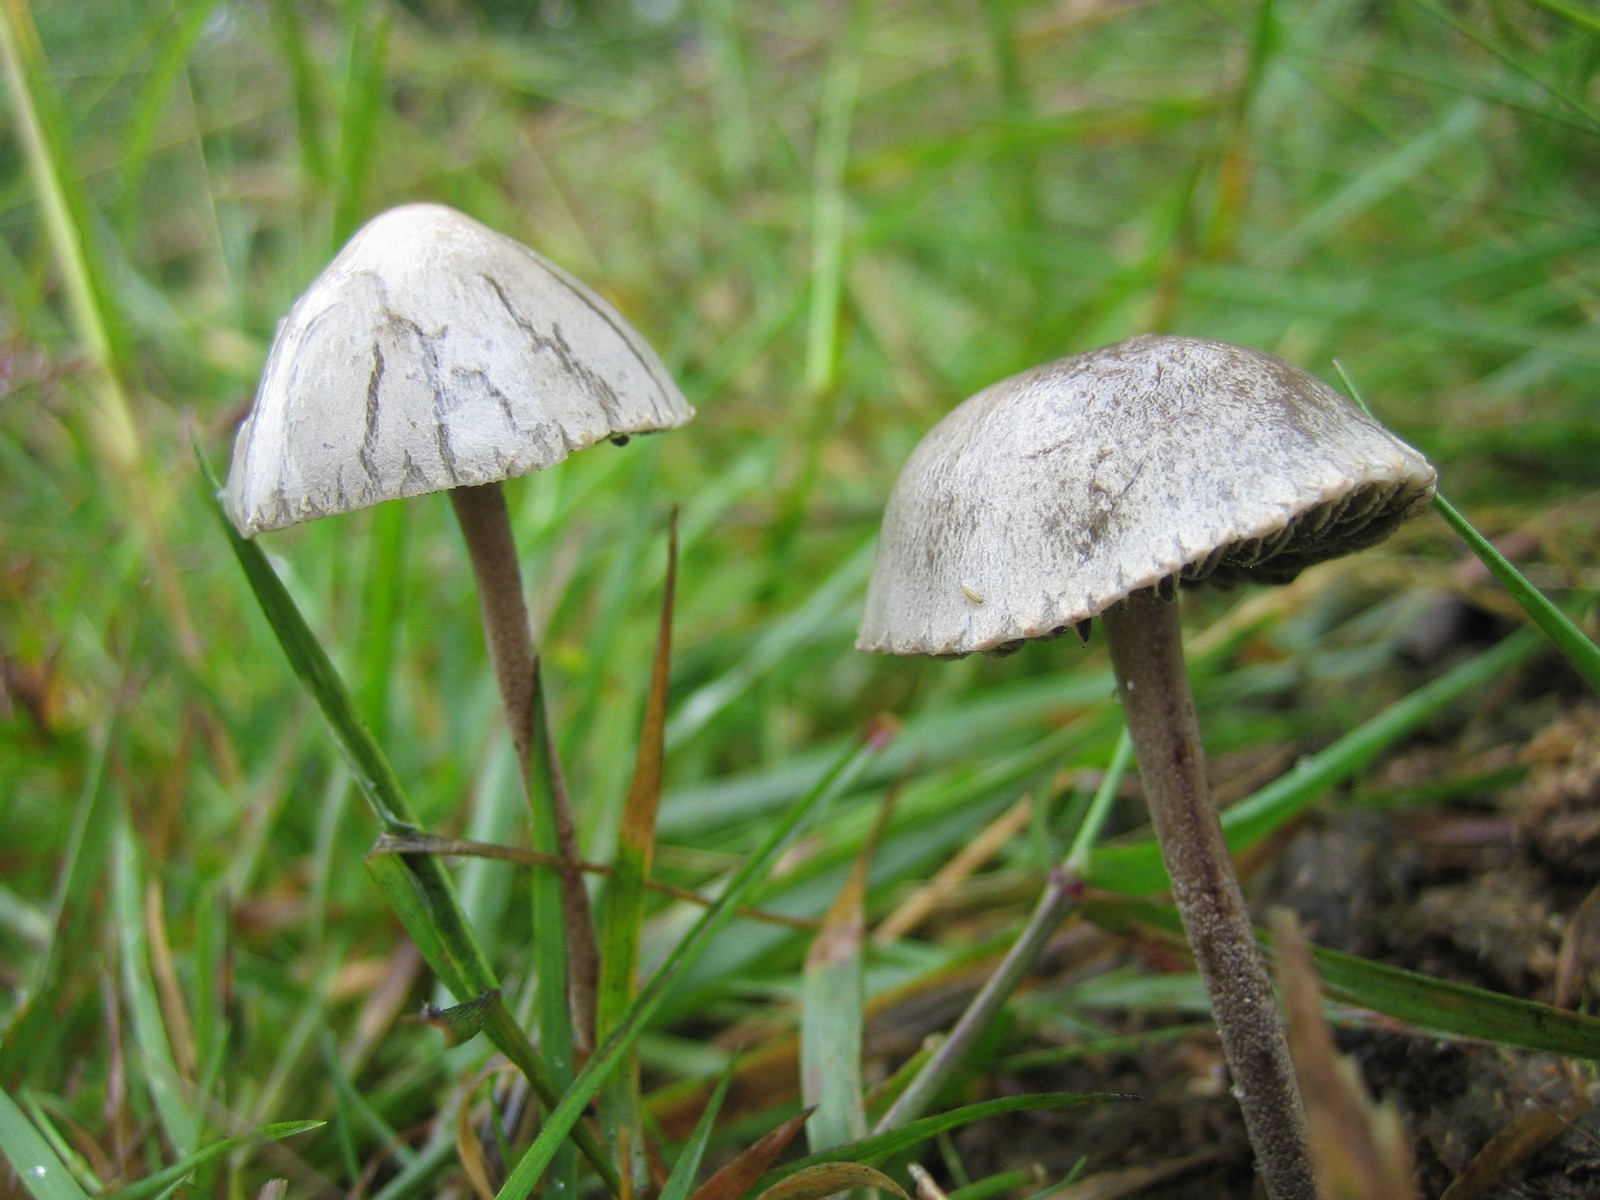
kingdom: Fungi
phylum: Basidiomycota
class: Agaricomycetes
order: Agaricales
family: Bolbitiaceae
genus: Panaeolus
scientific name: Panaeolus papilionaceus
